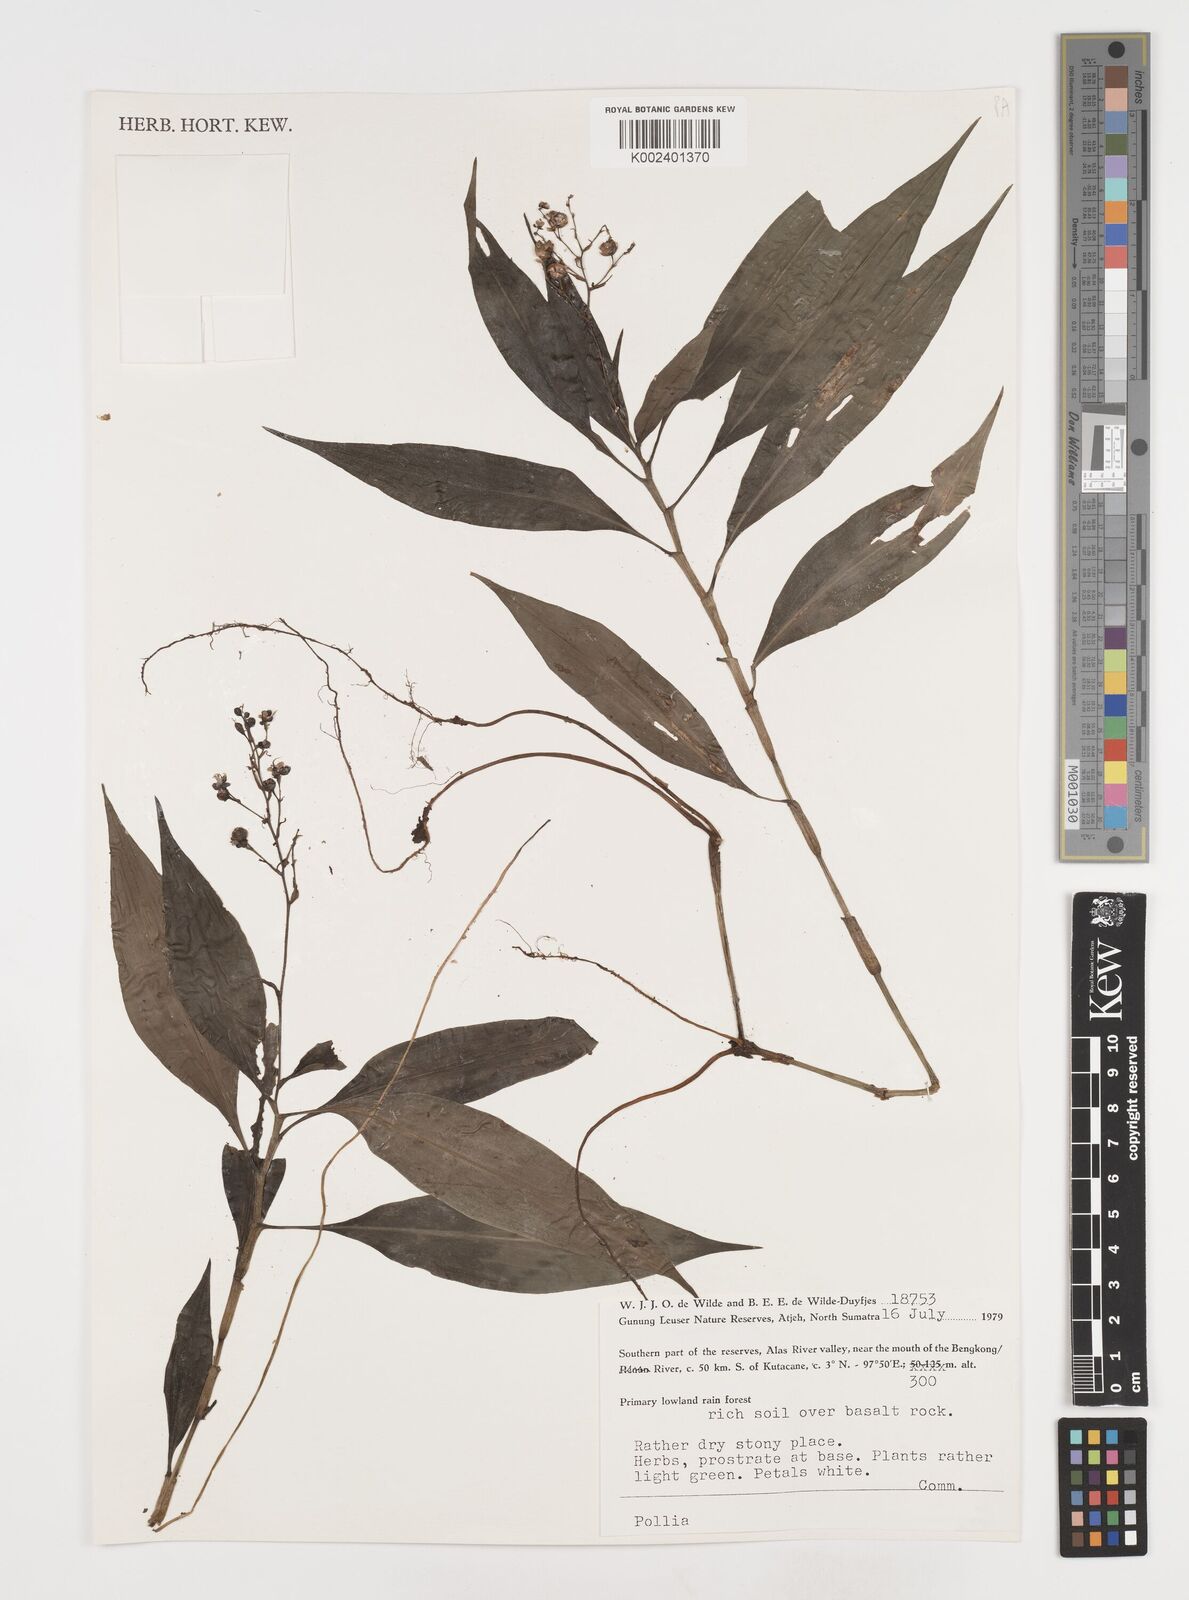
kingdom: Plantae
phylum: Tracheophyta
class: Liliopsida
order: Commelinales
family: Commelinaceae
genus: Pollia
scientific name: Pollia
